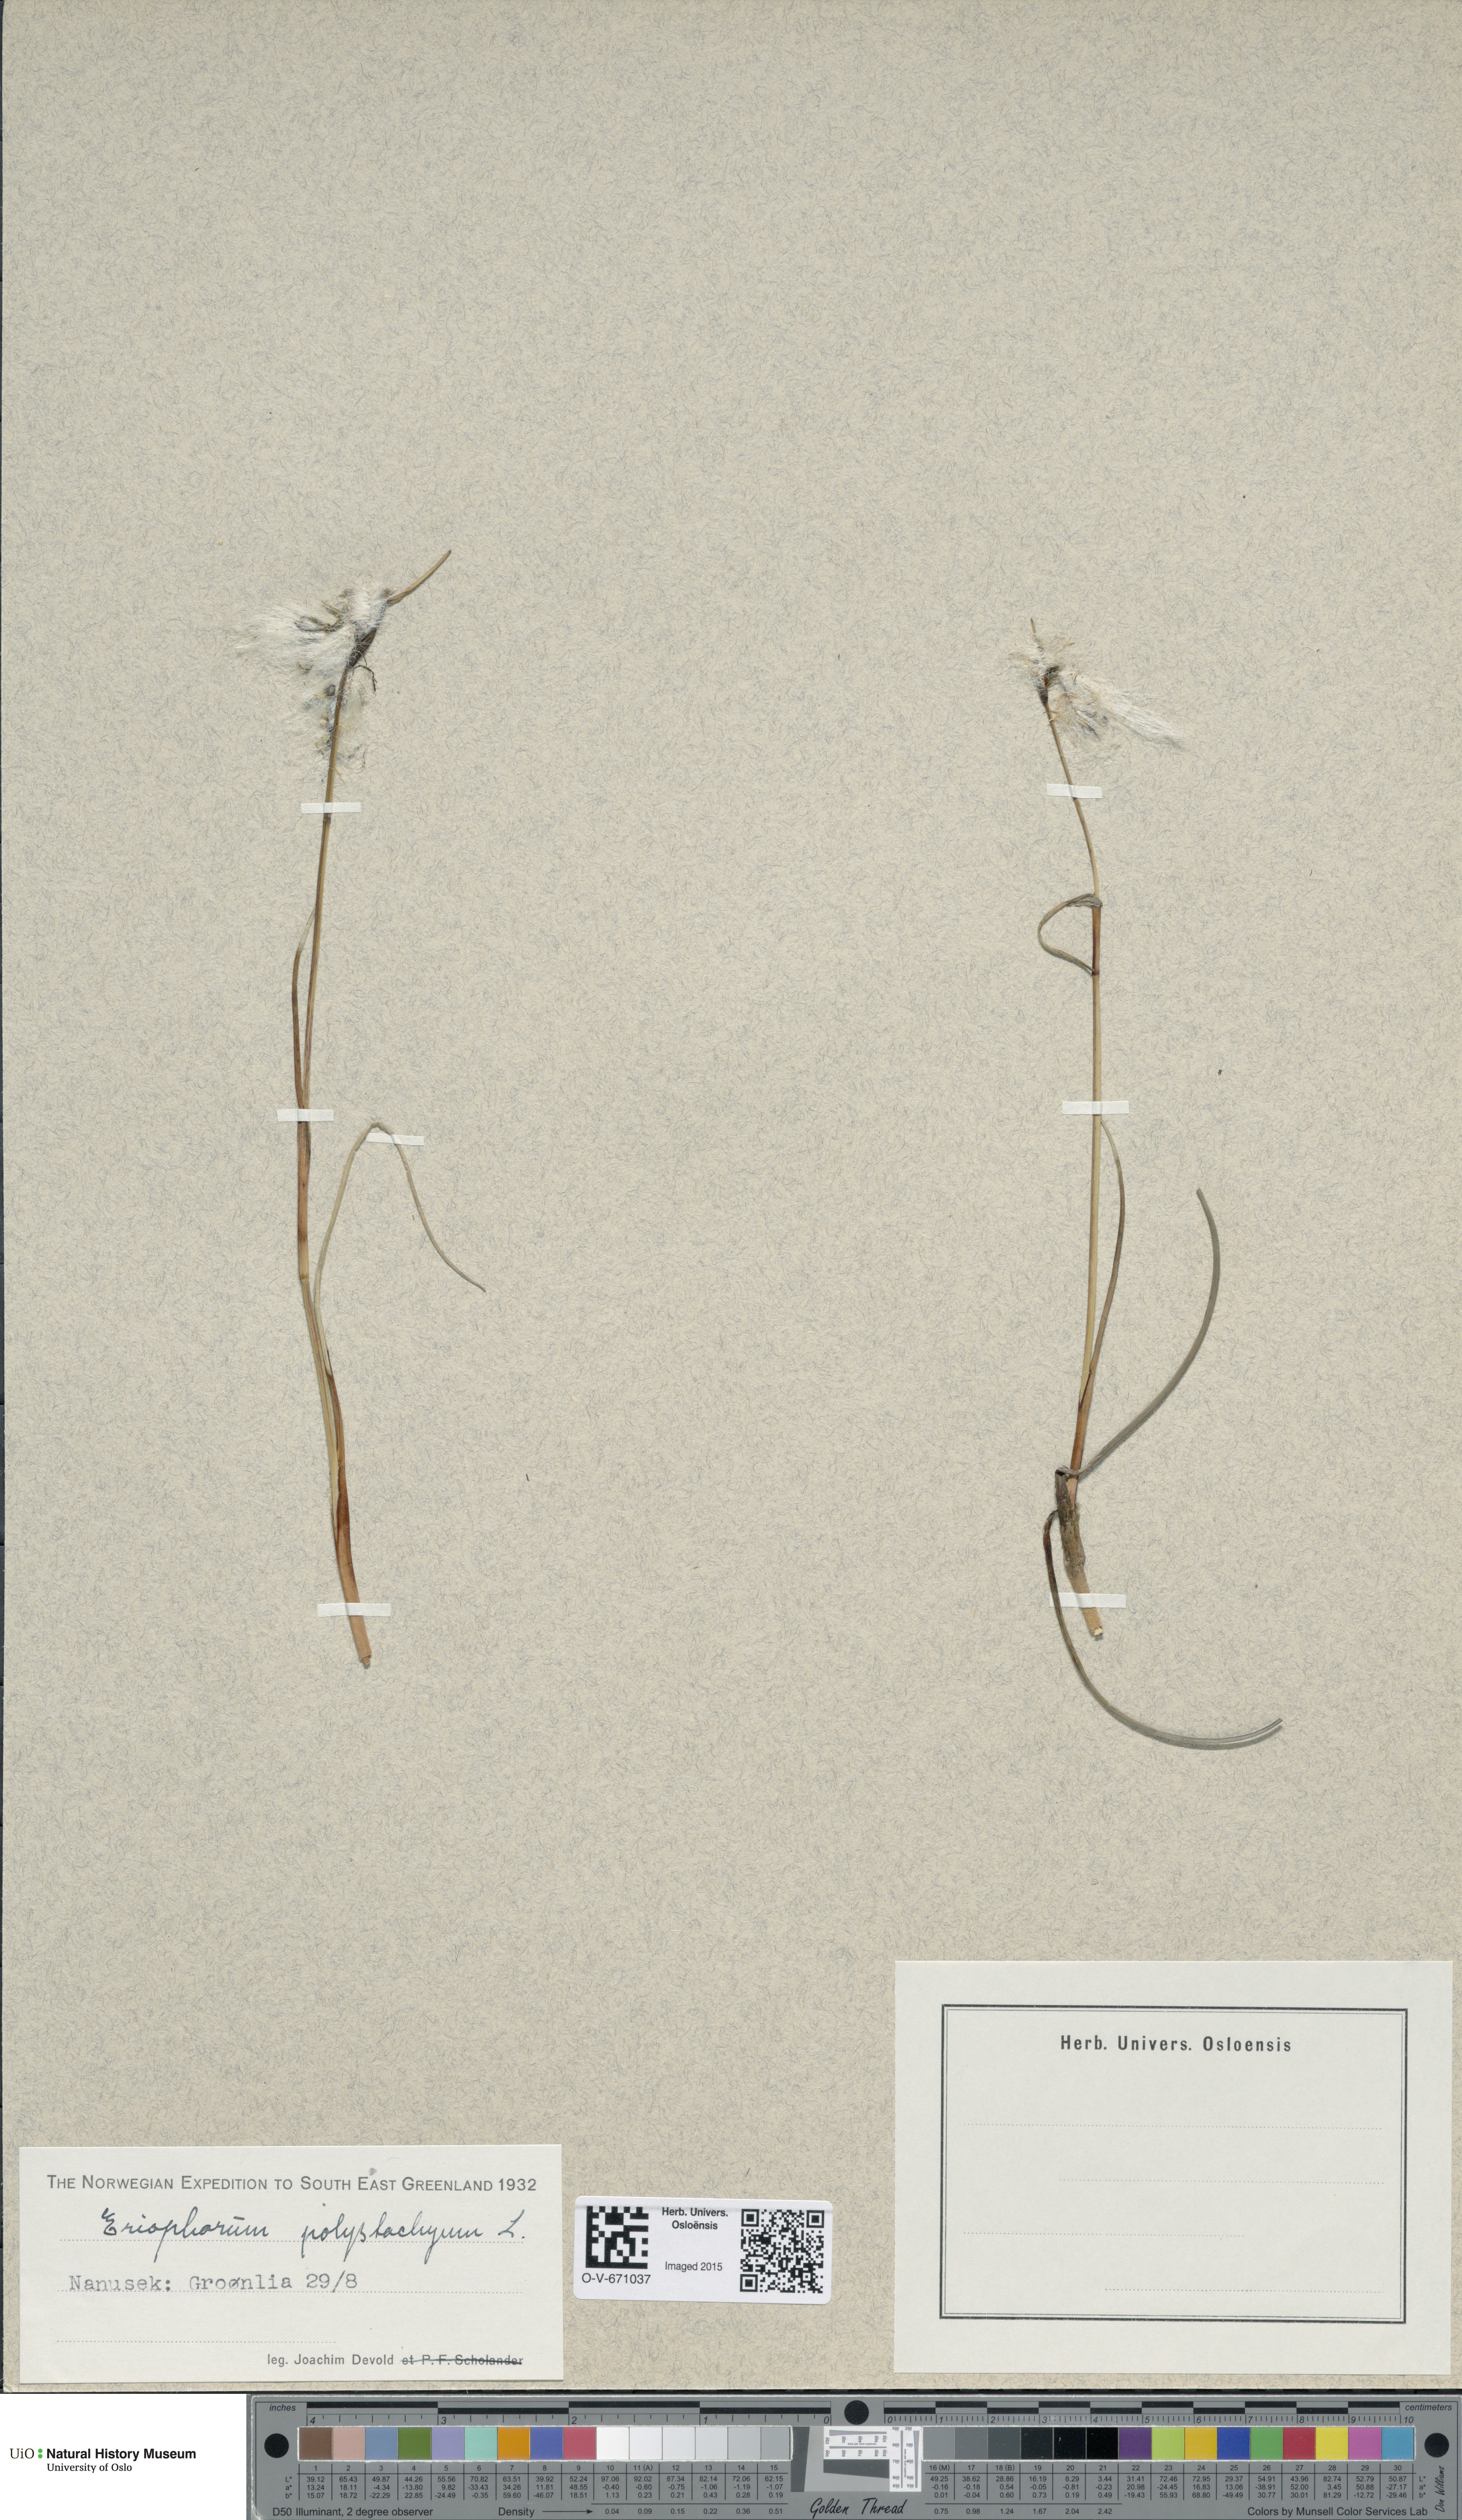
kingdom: Plantae
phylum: Tracheophyta
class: Liliopsida
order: Poales
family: Cyperaceae
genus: Eriophorum
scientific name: Eriophorum angustifolium
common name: Common cottongrass
